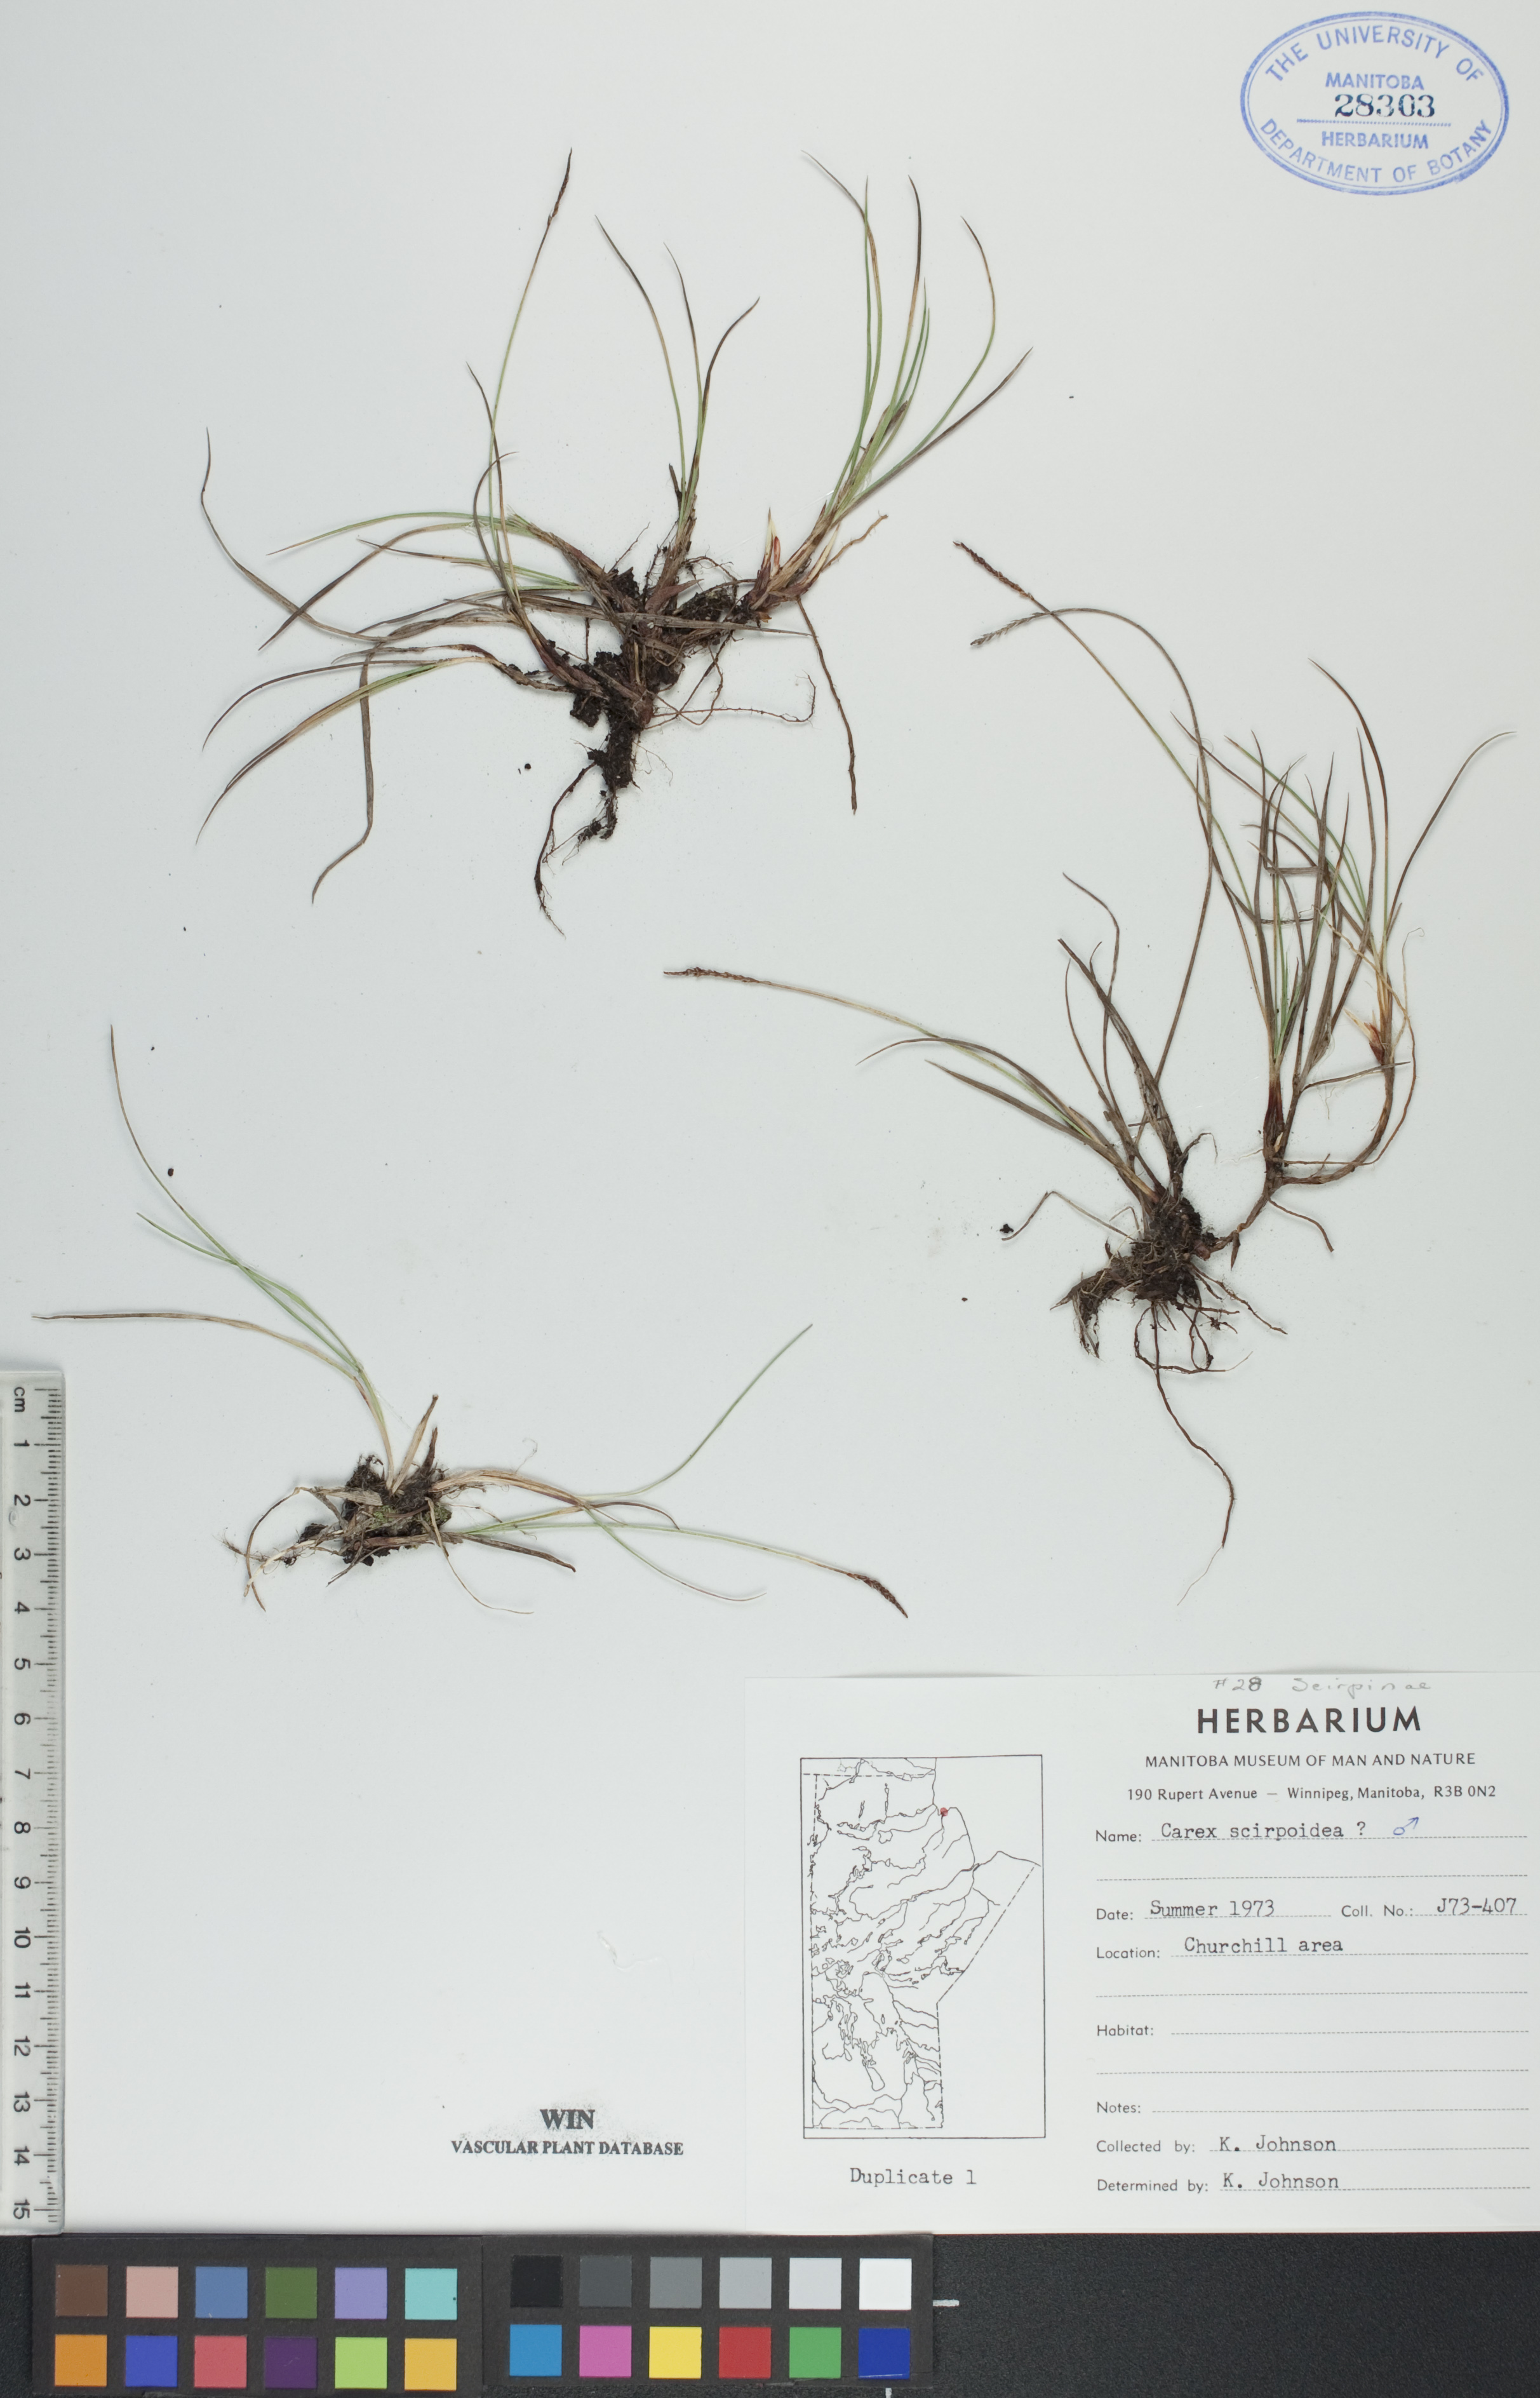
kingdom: Plantae
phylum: Tracheophyta
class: Liliopsida
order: Poales
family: Cyperaceae
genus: Carex
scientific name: Carex scirpoidea
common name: Canada single-spike sedge
